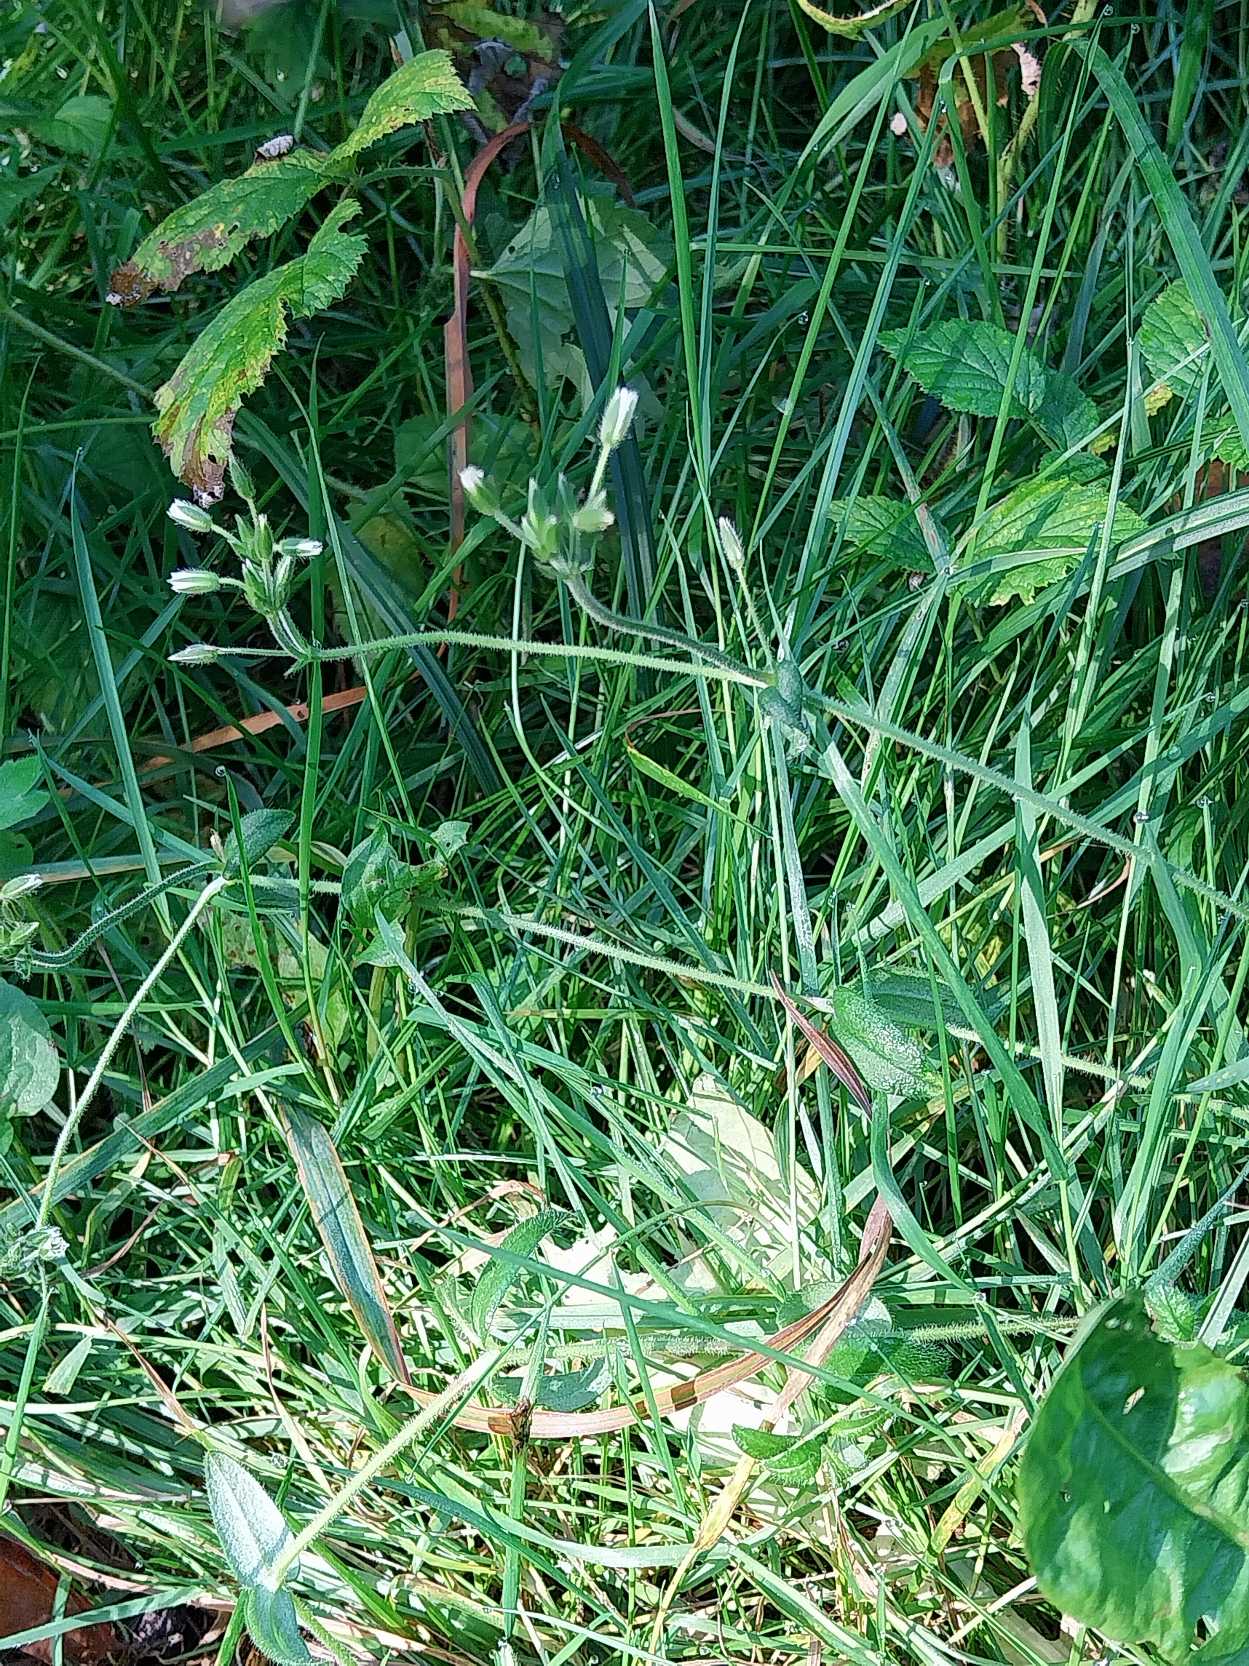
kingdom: Plantae
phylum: Tracheophyta
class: Magnoliopsida
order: Caryophyllales
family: Caryophyllaceae
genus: Cerastium
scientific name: Cerastium fontanum
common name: Almindelig hønsetarm
